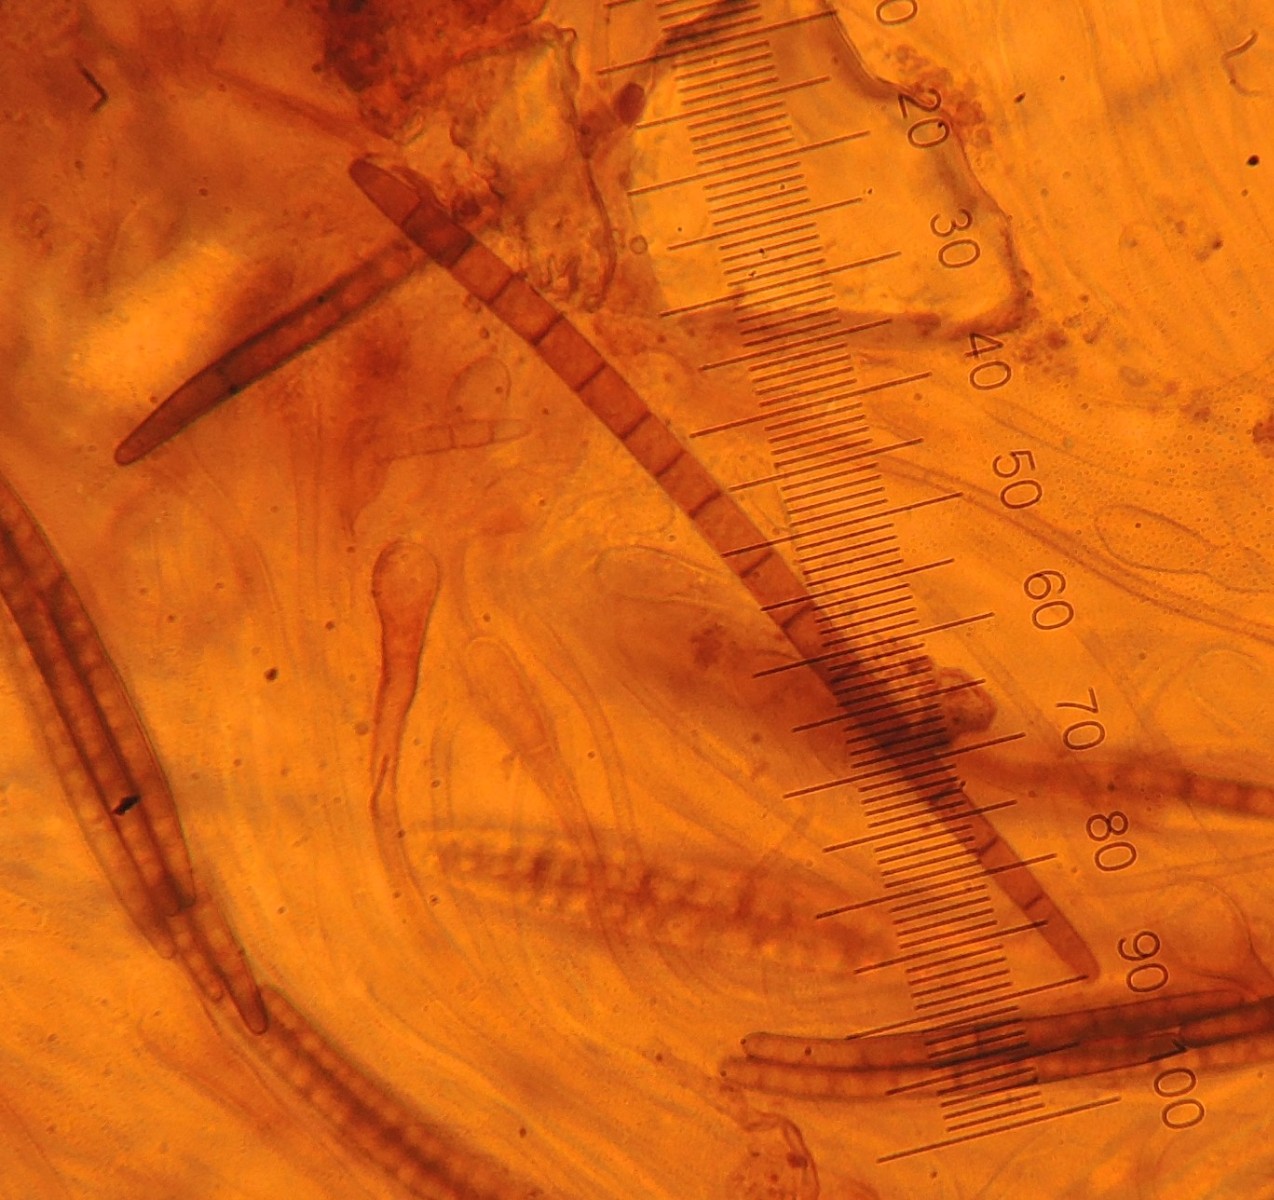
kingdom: Fungi
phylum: Ascomycota
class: Geoglossomycetes
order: Geoglossales
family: Geoglossaceae
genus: Glutinoglossum
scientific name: Glutinoglossum heptaseptatum
